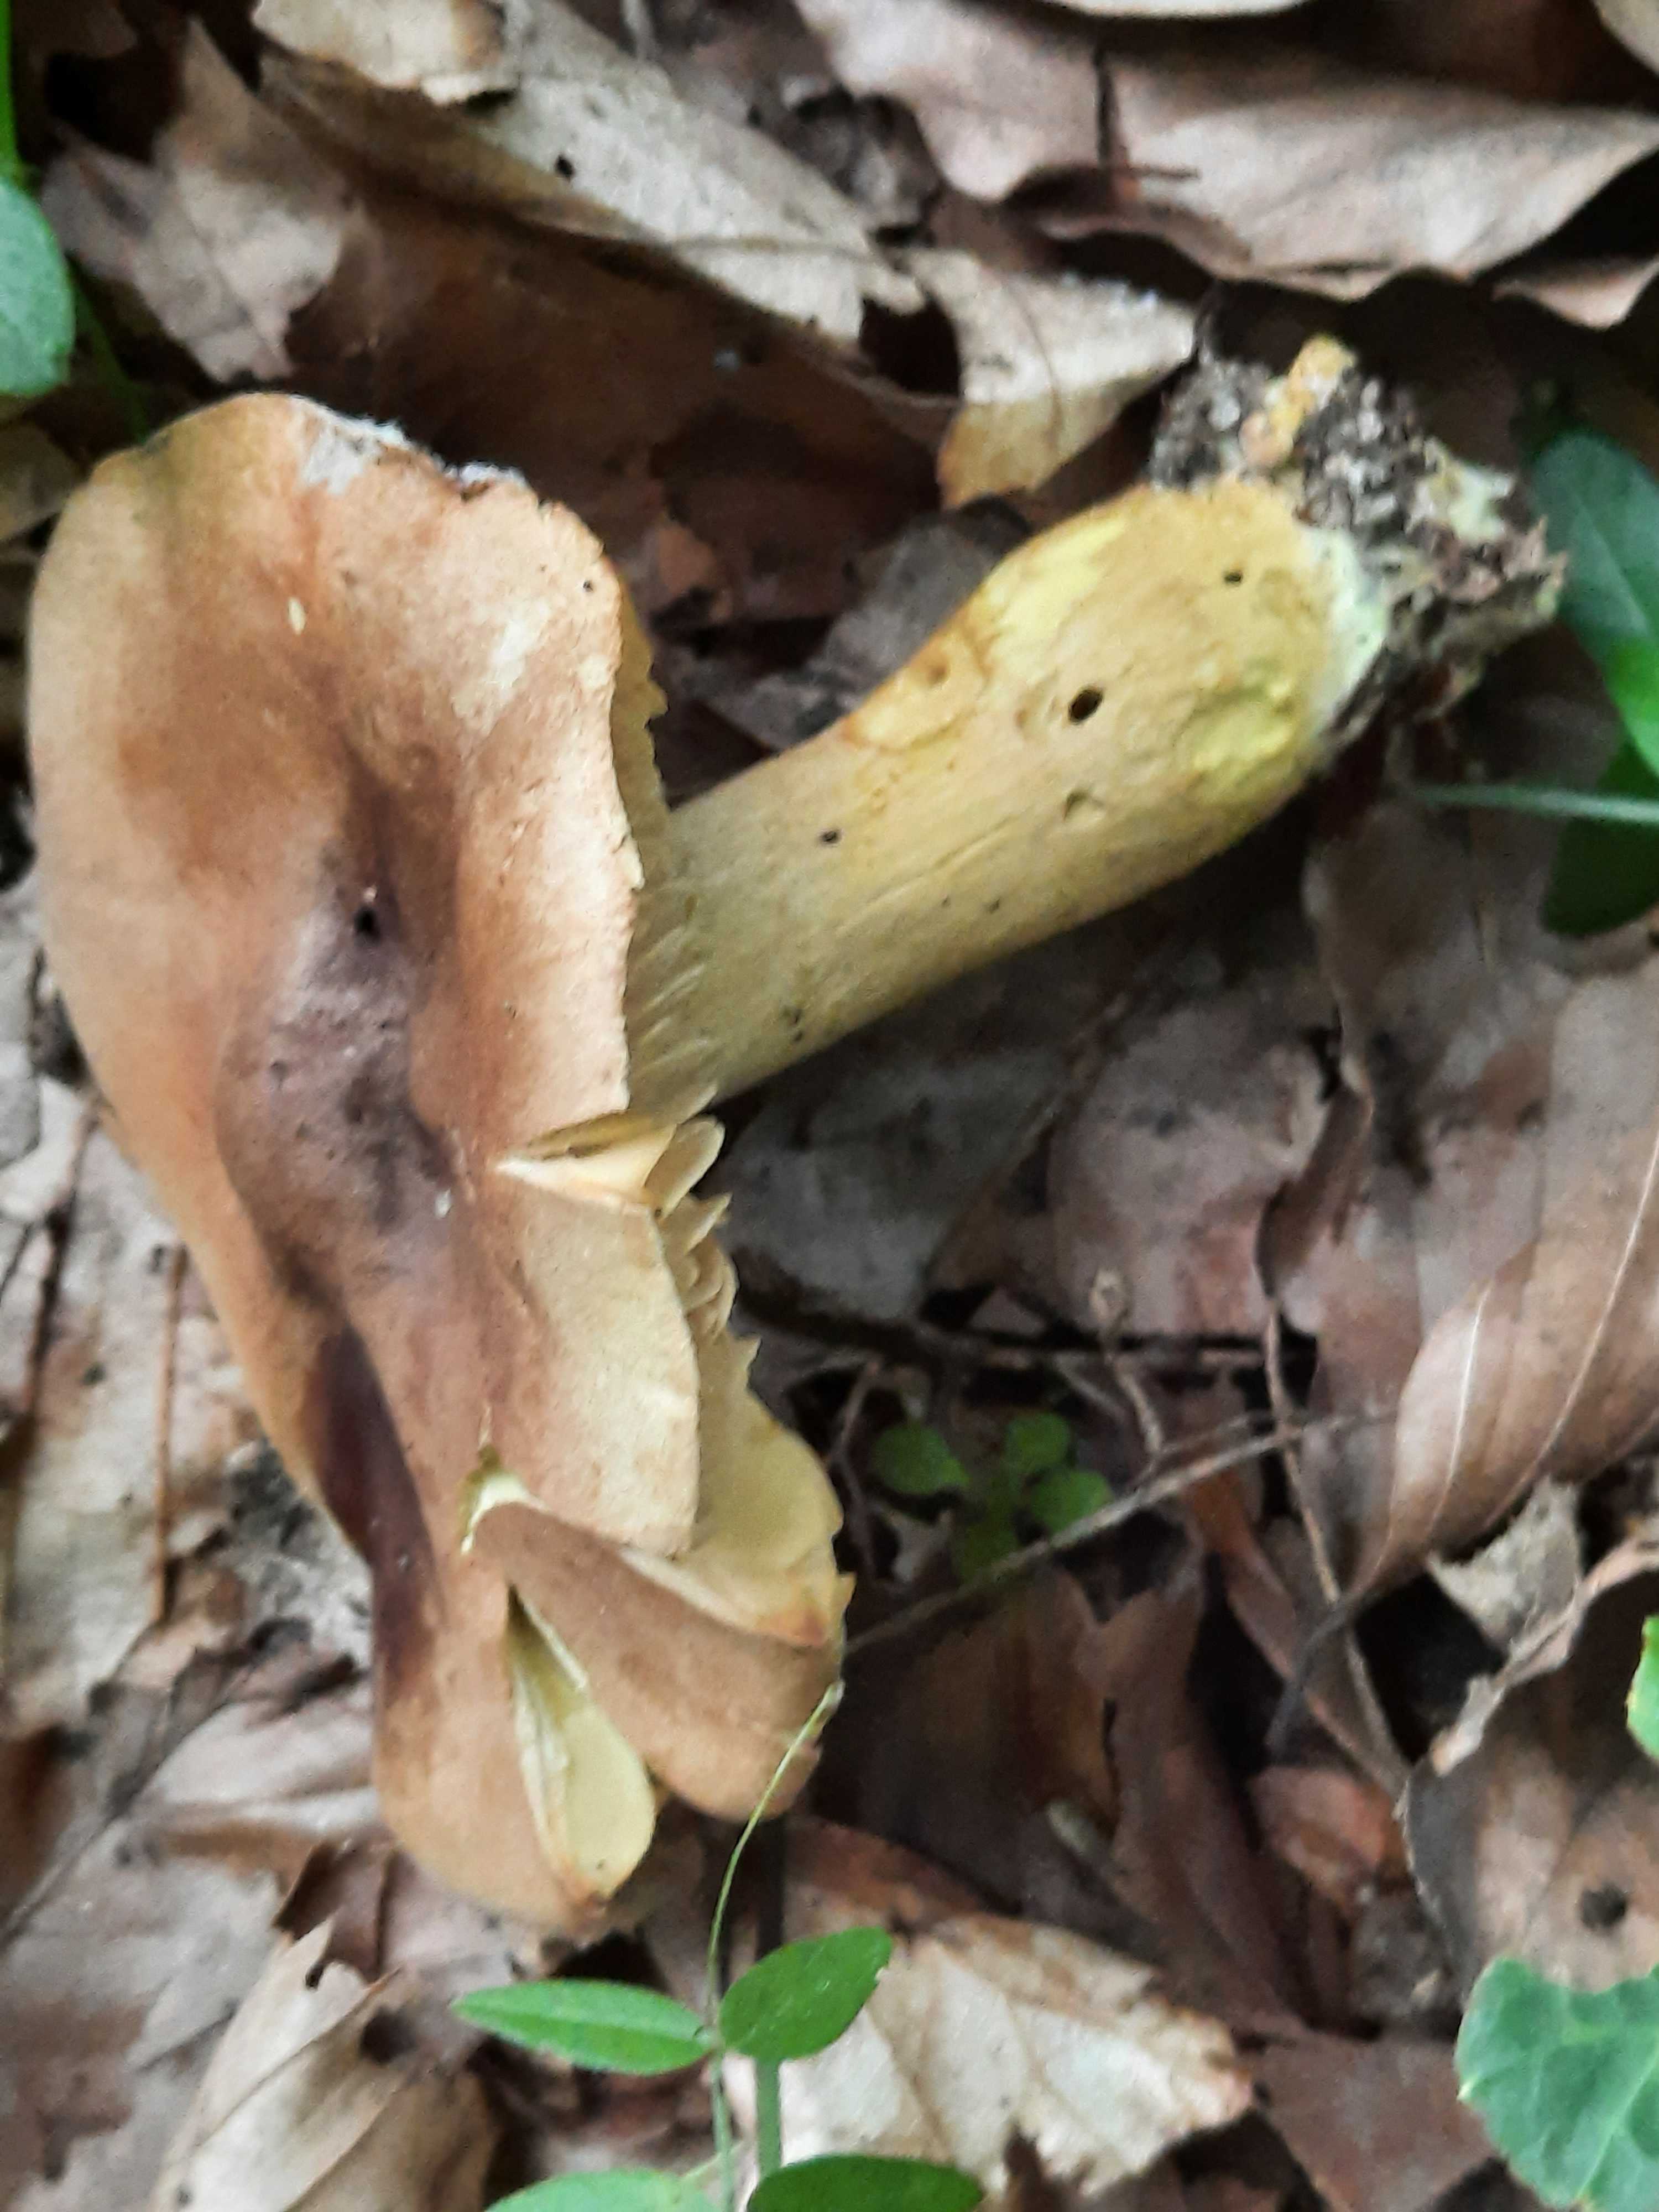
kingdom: Fungi
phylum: Basidiomycota
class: Agaricomycetes
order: Agaricales
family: Tricholomataceae
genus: Tricholoma
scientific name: Tricholoma sulphureum
